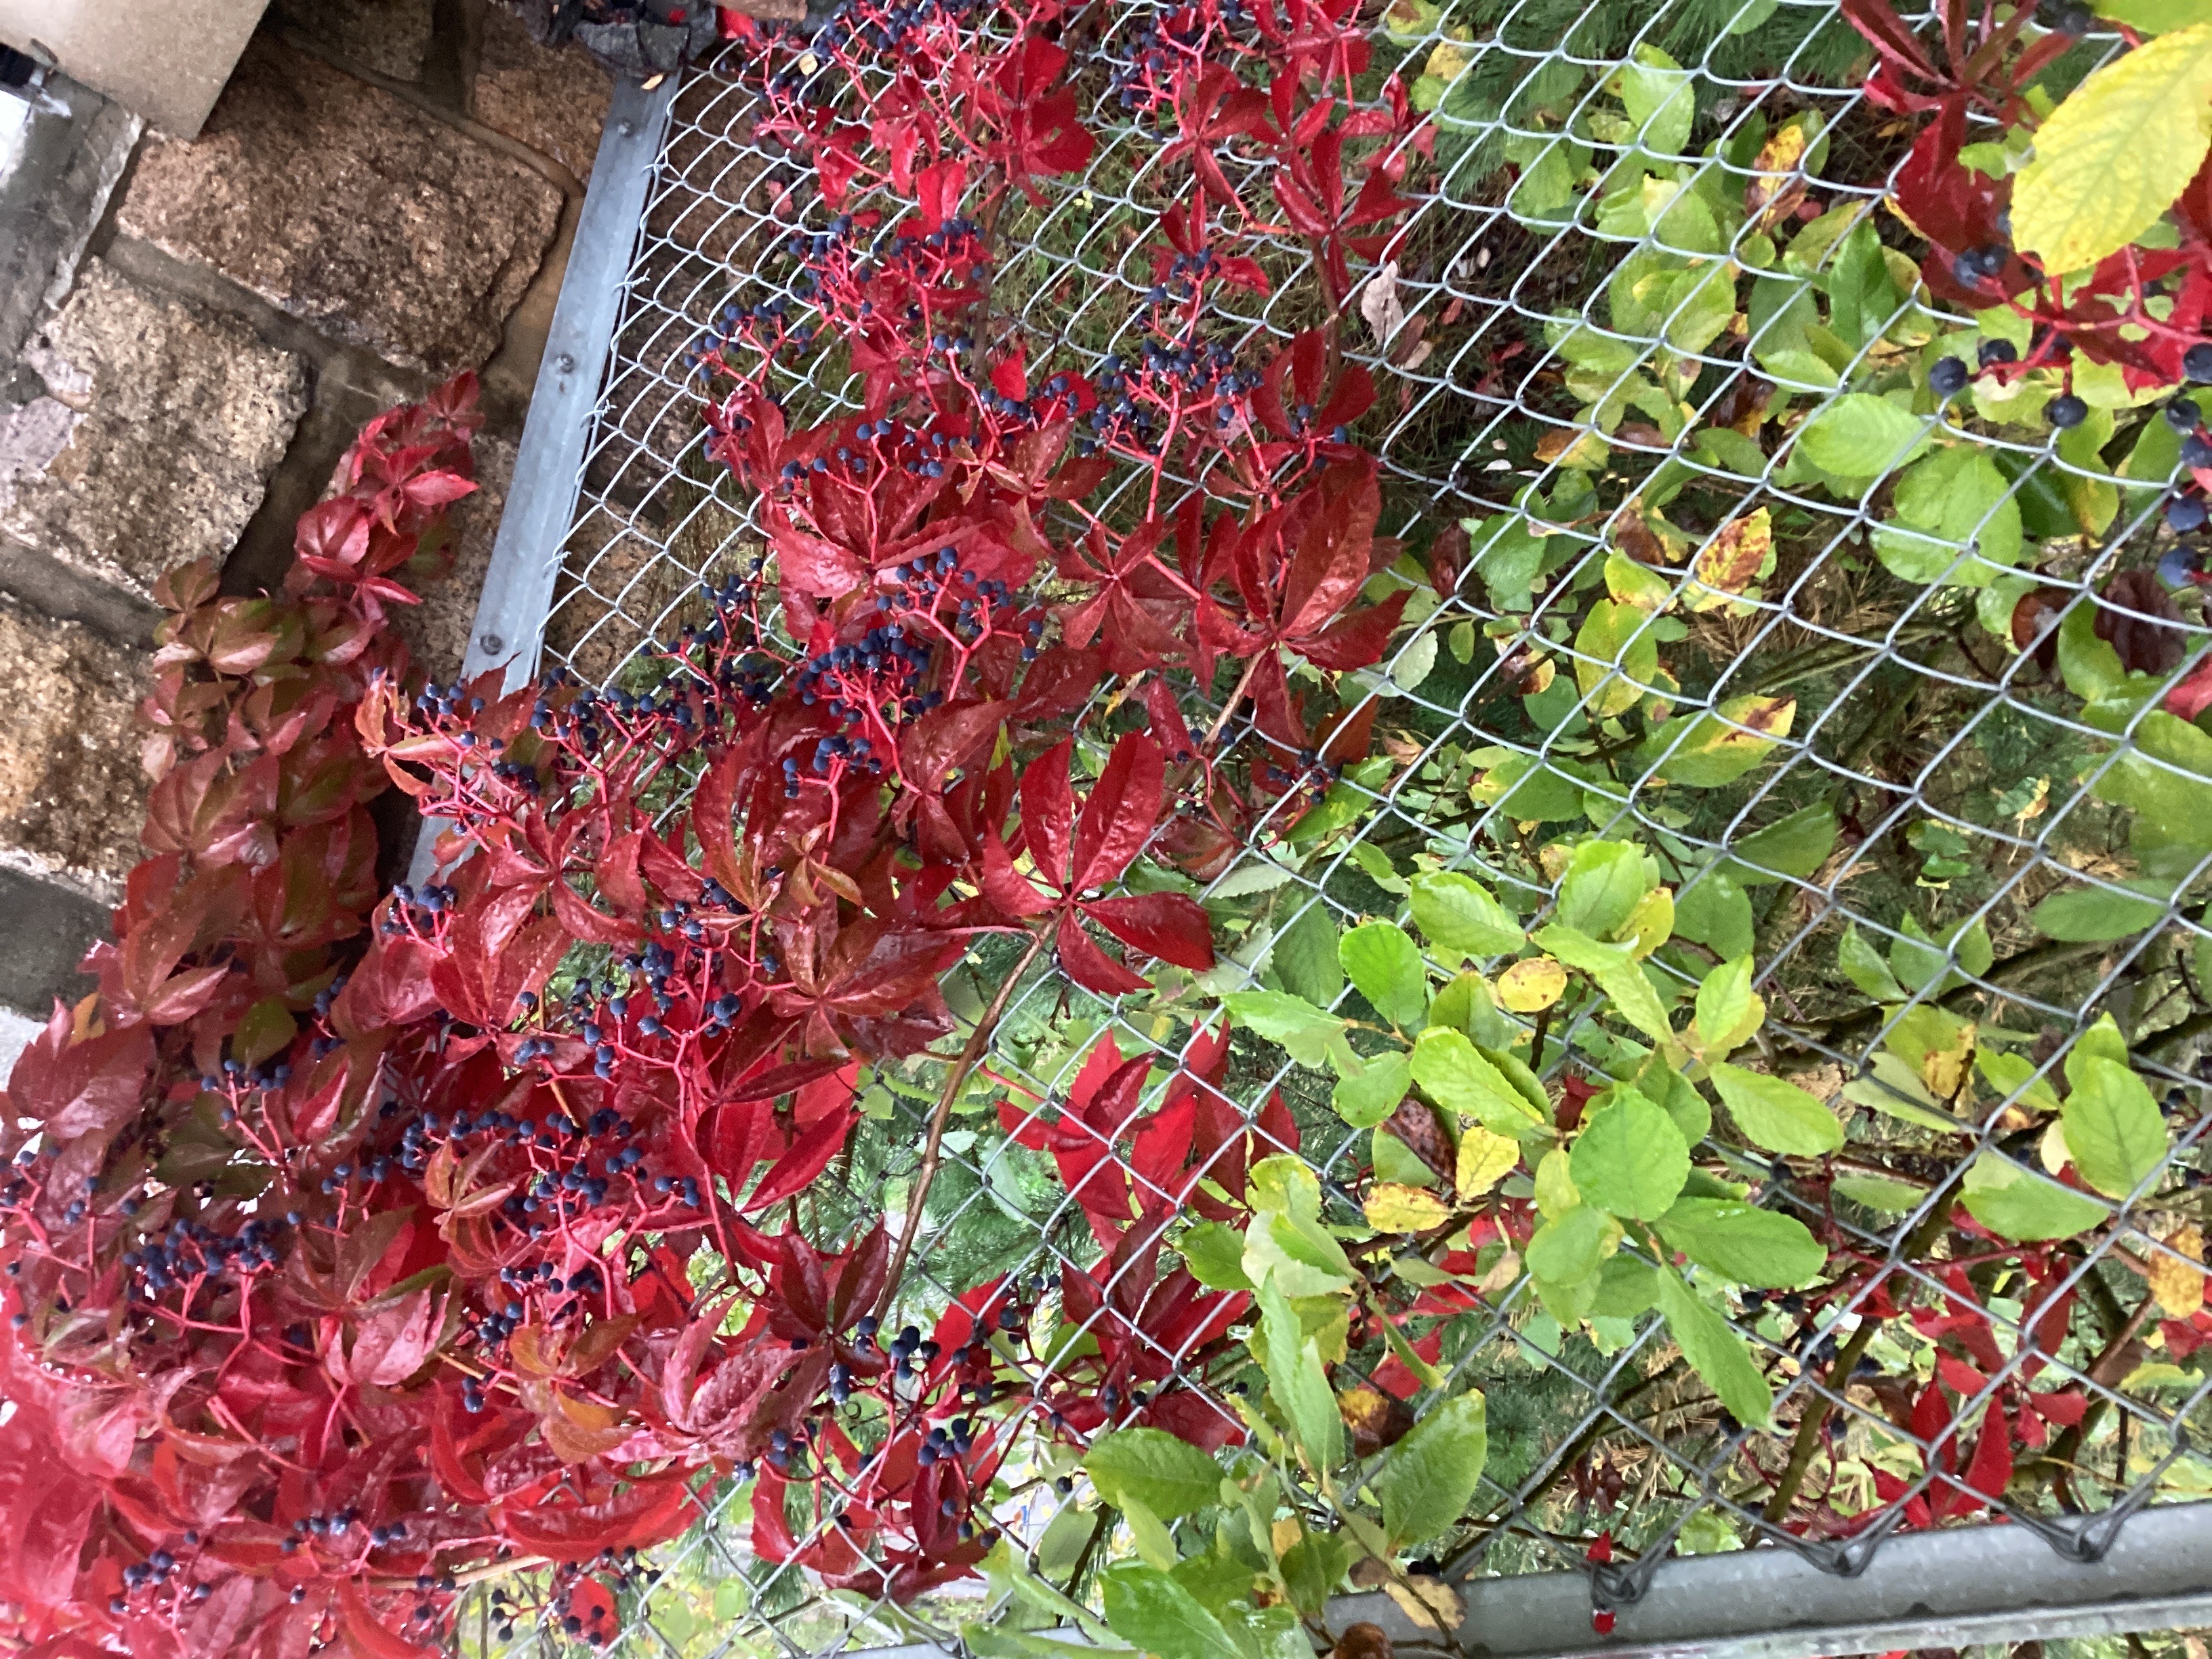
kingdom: Plantae
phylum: Tracheophyta
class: Magnoliopsida
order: Vitales
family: Vitaceae
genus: Parthenocissus
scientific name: Parthenocissus quinquefolia
